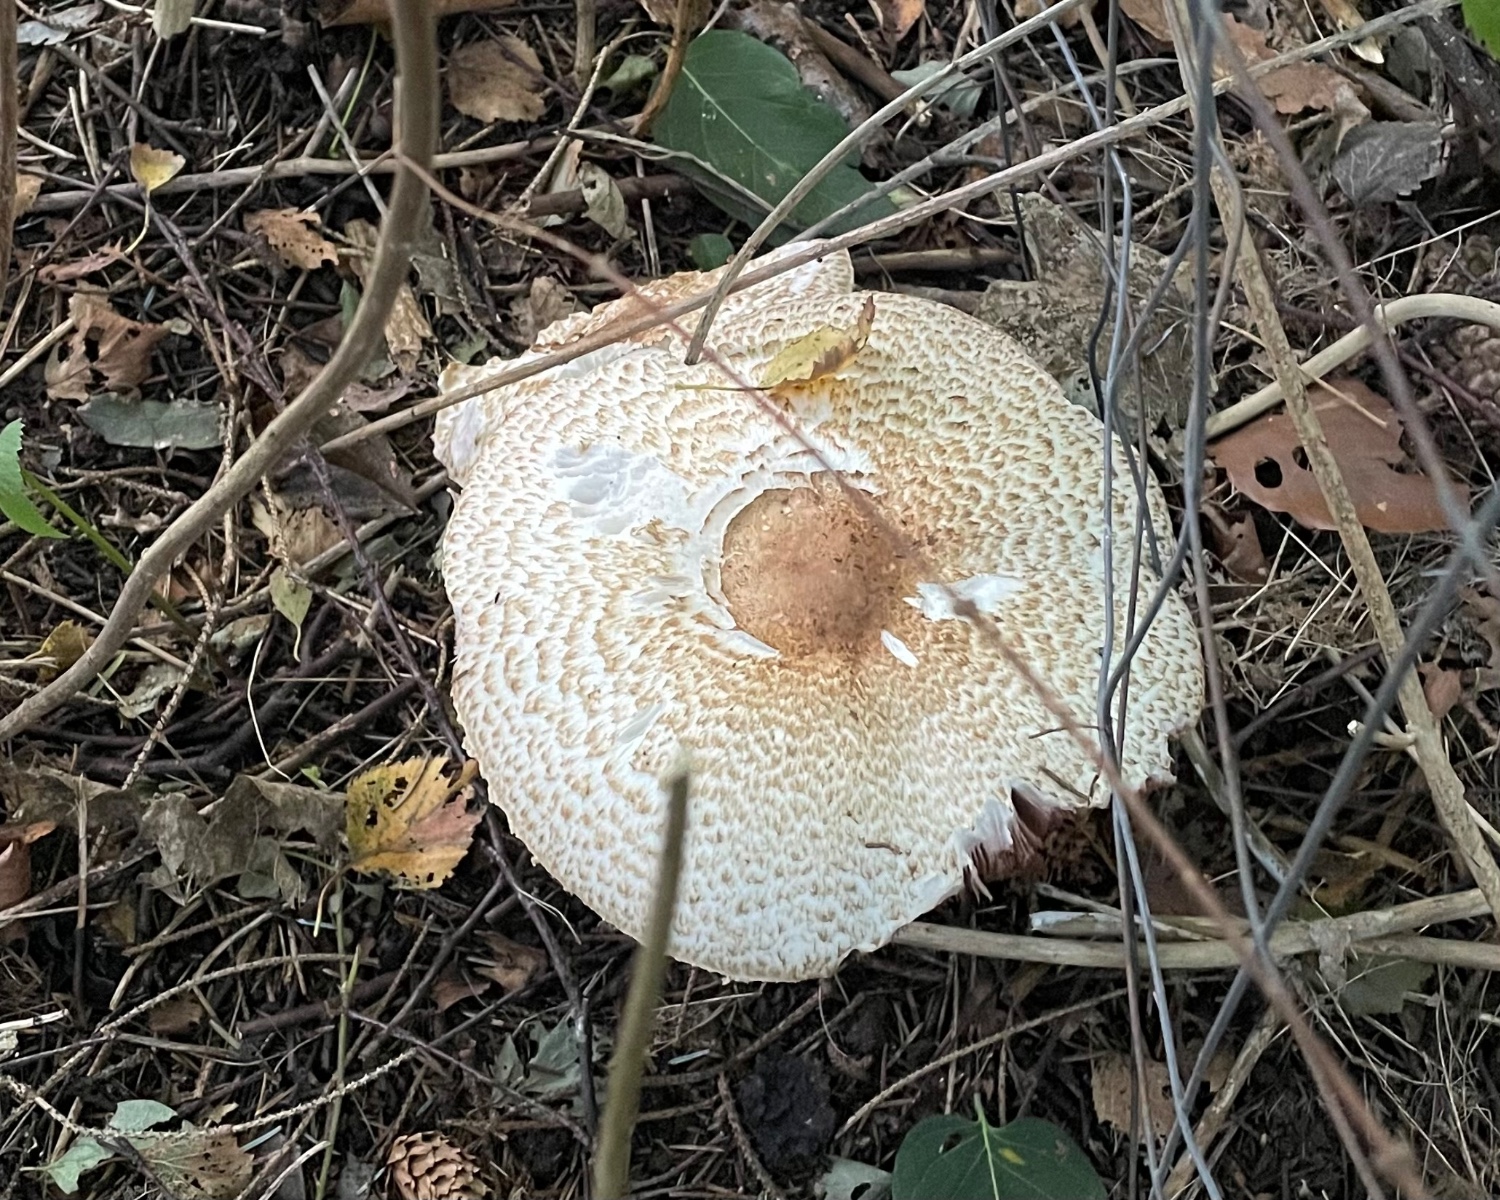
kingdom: Fungi
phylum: Basidiomycota
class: Agaricomycetes
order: Agaricales
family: Agaricaceae
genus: Agaricus
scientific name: Agaricus augustus
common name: prægtig champignon
